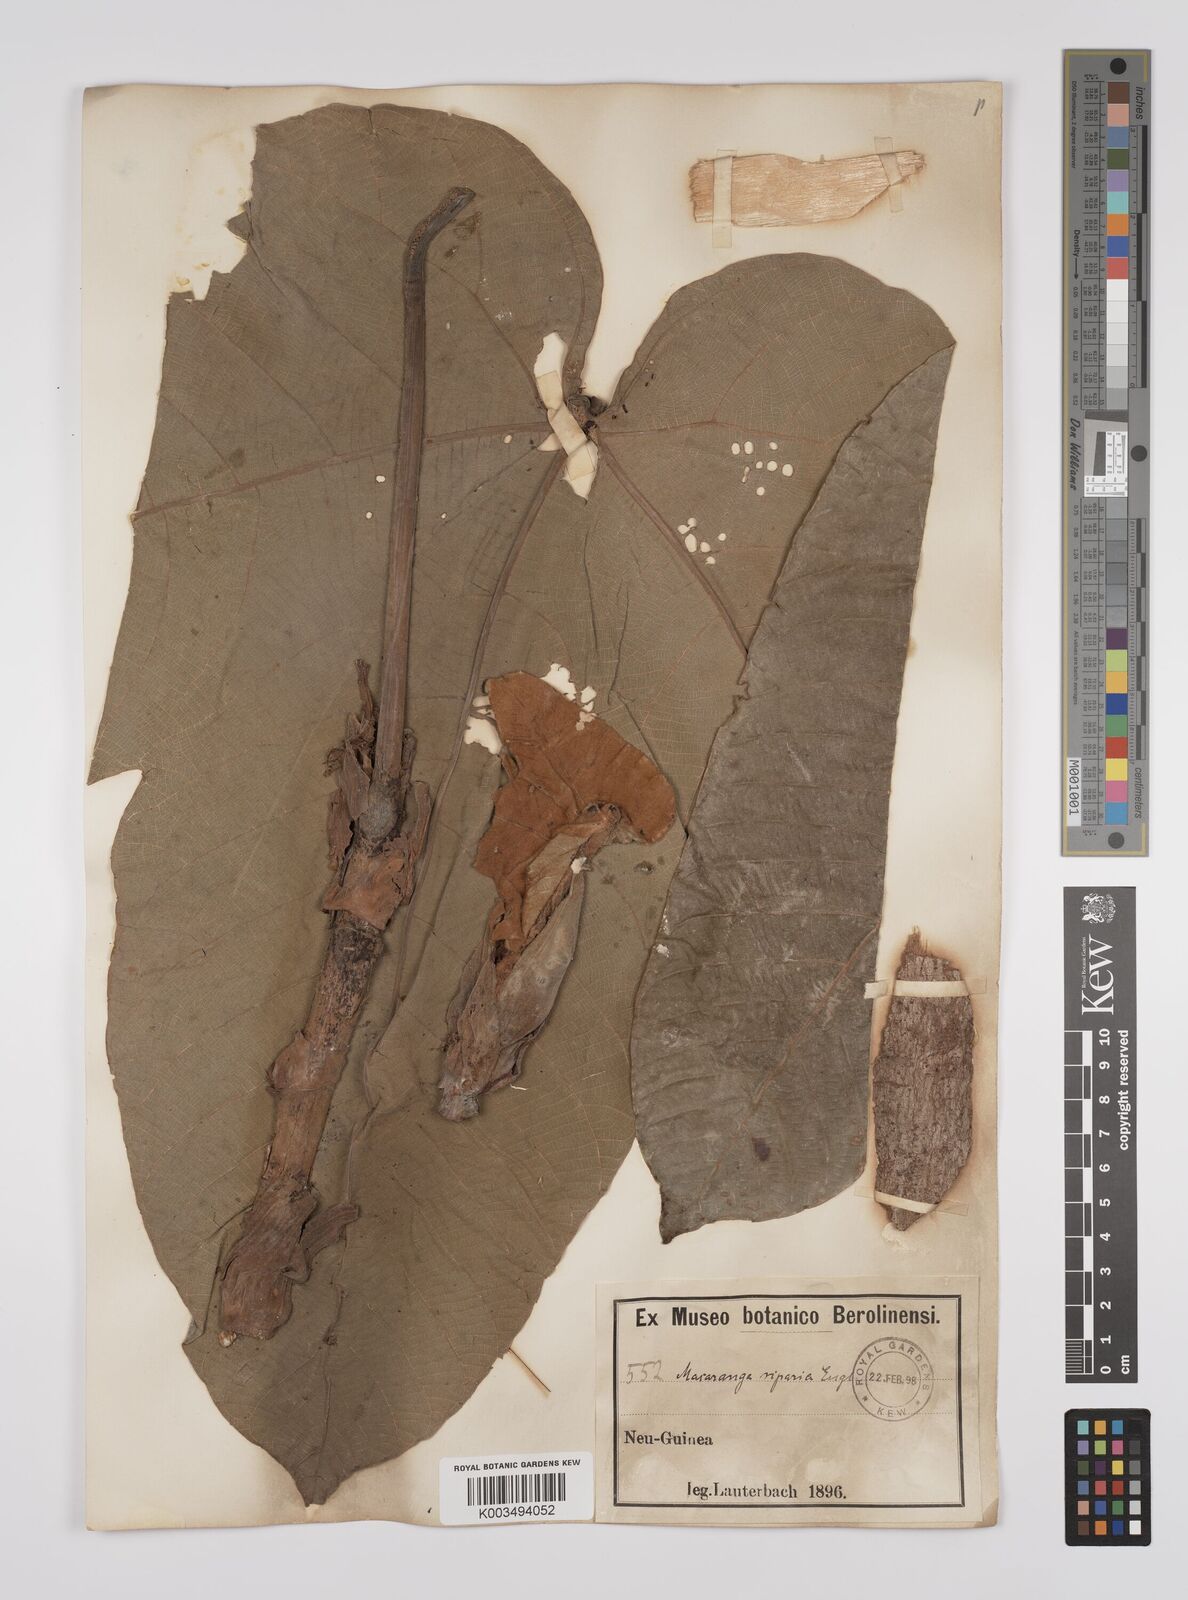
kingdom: Plantae
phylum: Tracheophyta
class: Magnoliopsida
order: Malpighiales
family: Euphorbiaceae
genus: Macaranga
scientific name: Macaranga aleuritoides
